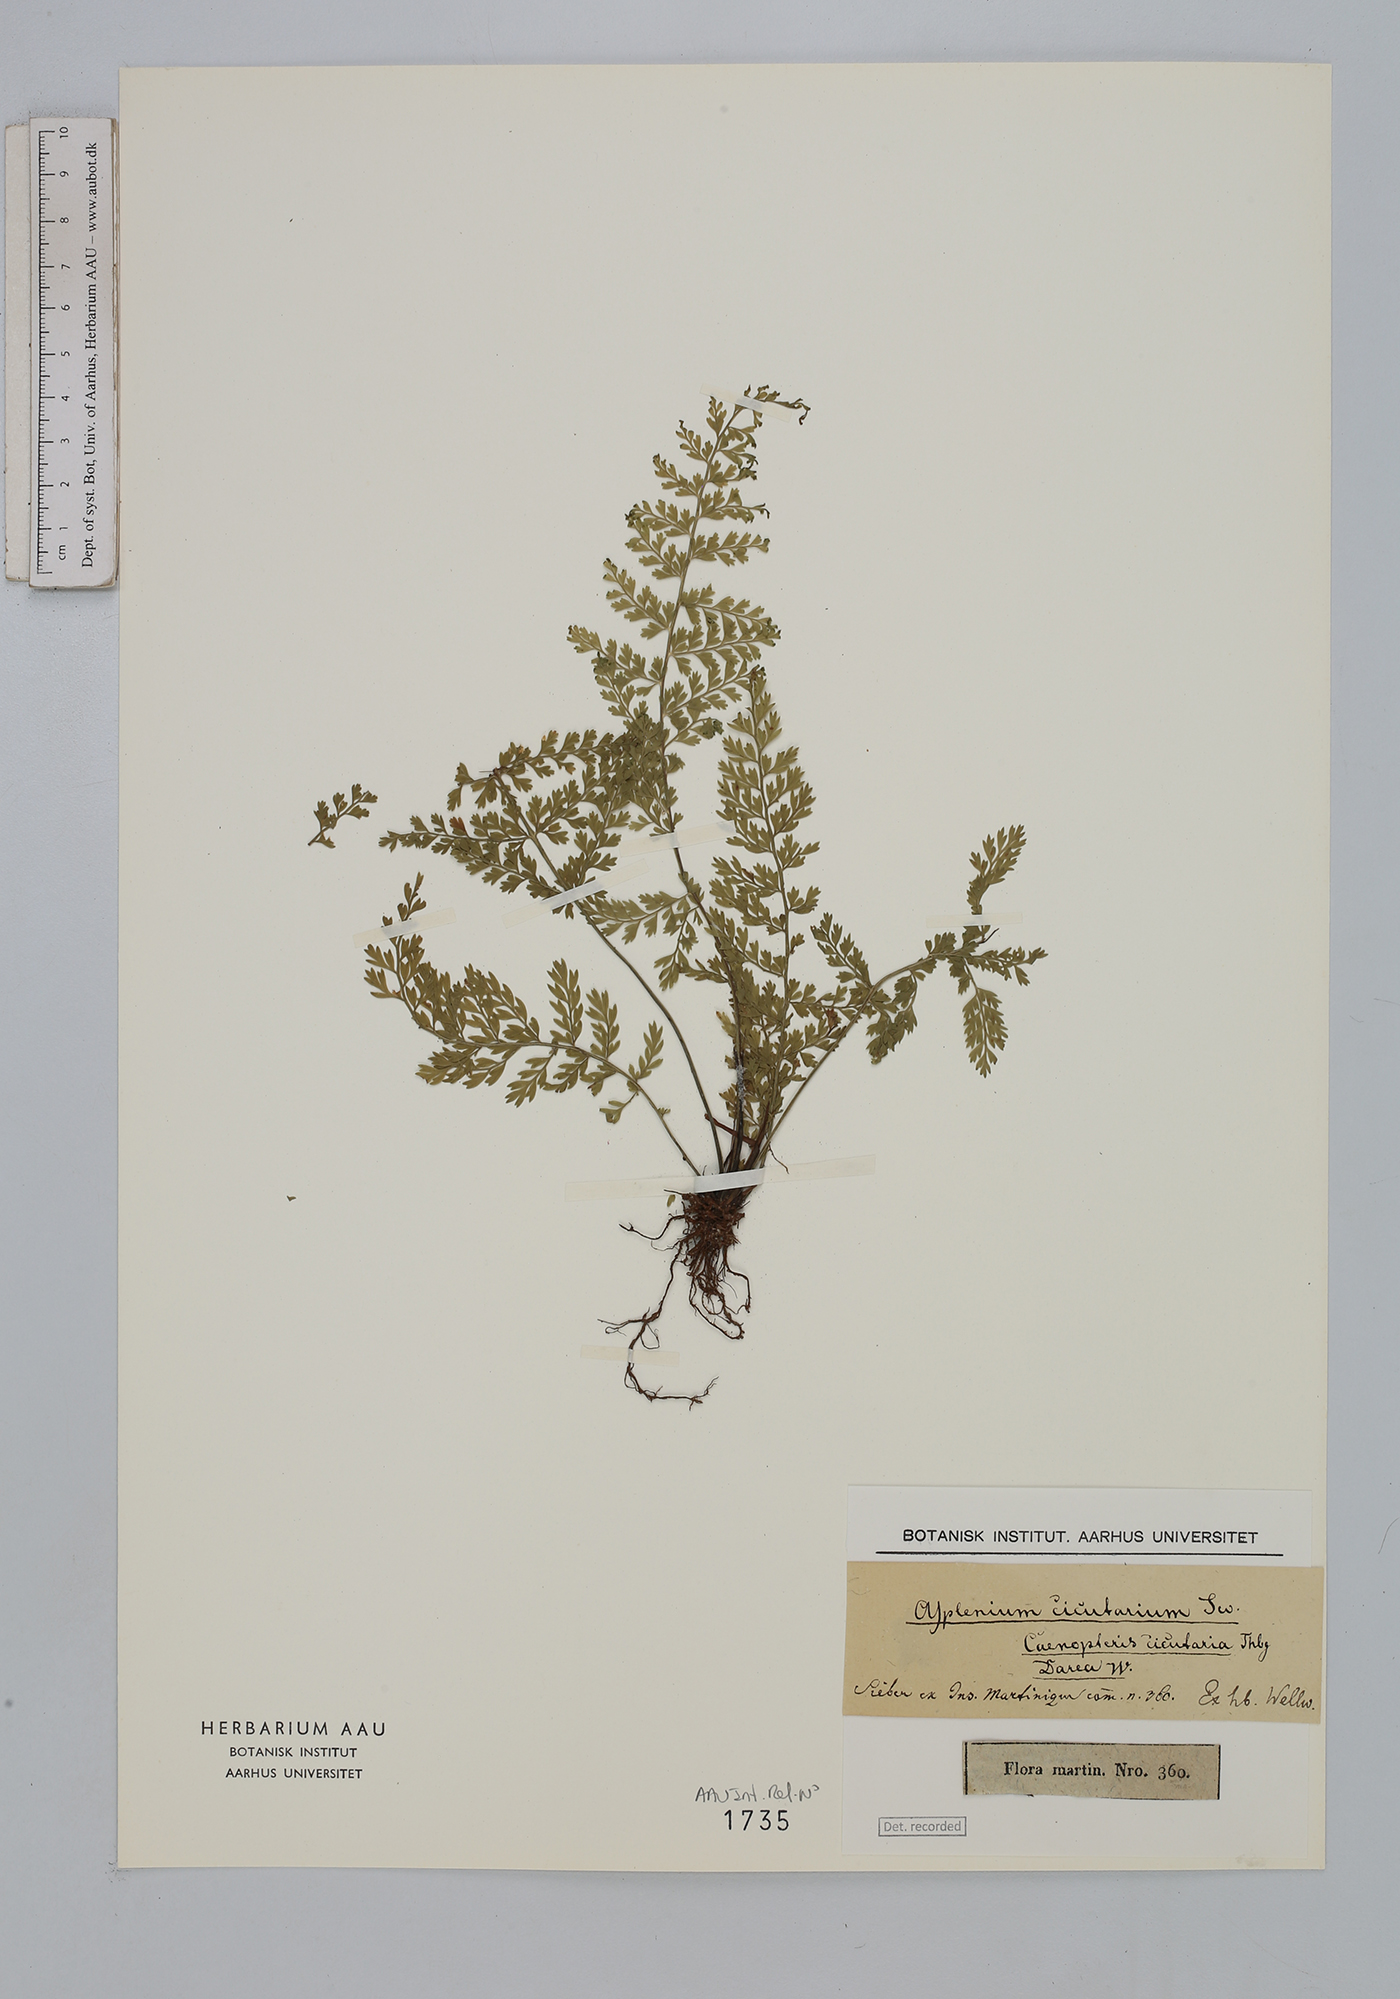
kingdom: Plantae
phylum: Tracheophyta
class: Polypodiopsida
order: Polypodiales
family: Aspleniaceae
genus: Asplenium
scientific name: Asplenium cristatum
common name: Parsley spleenwort
